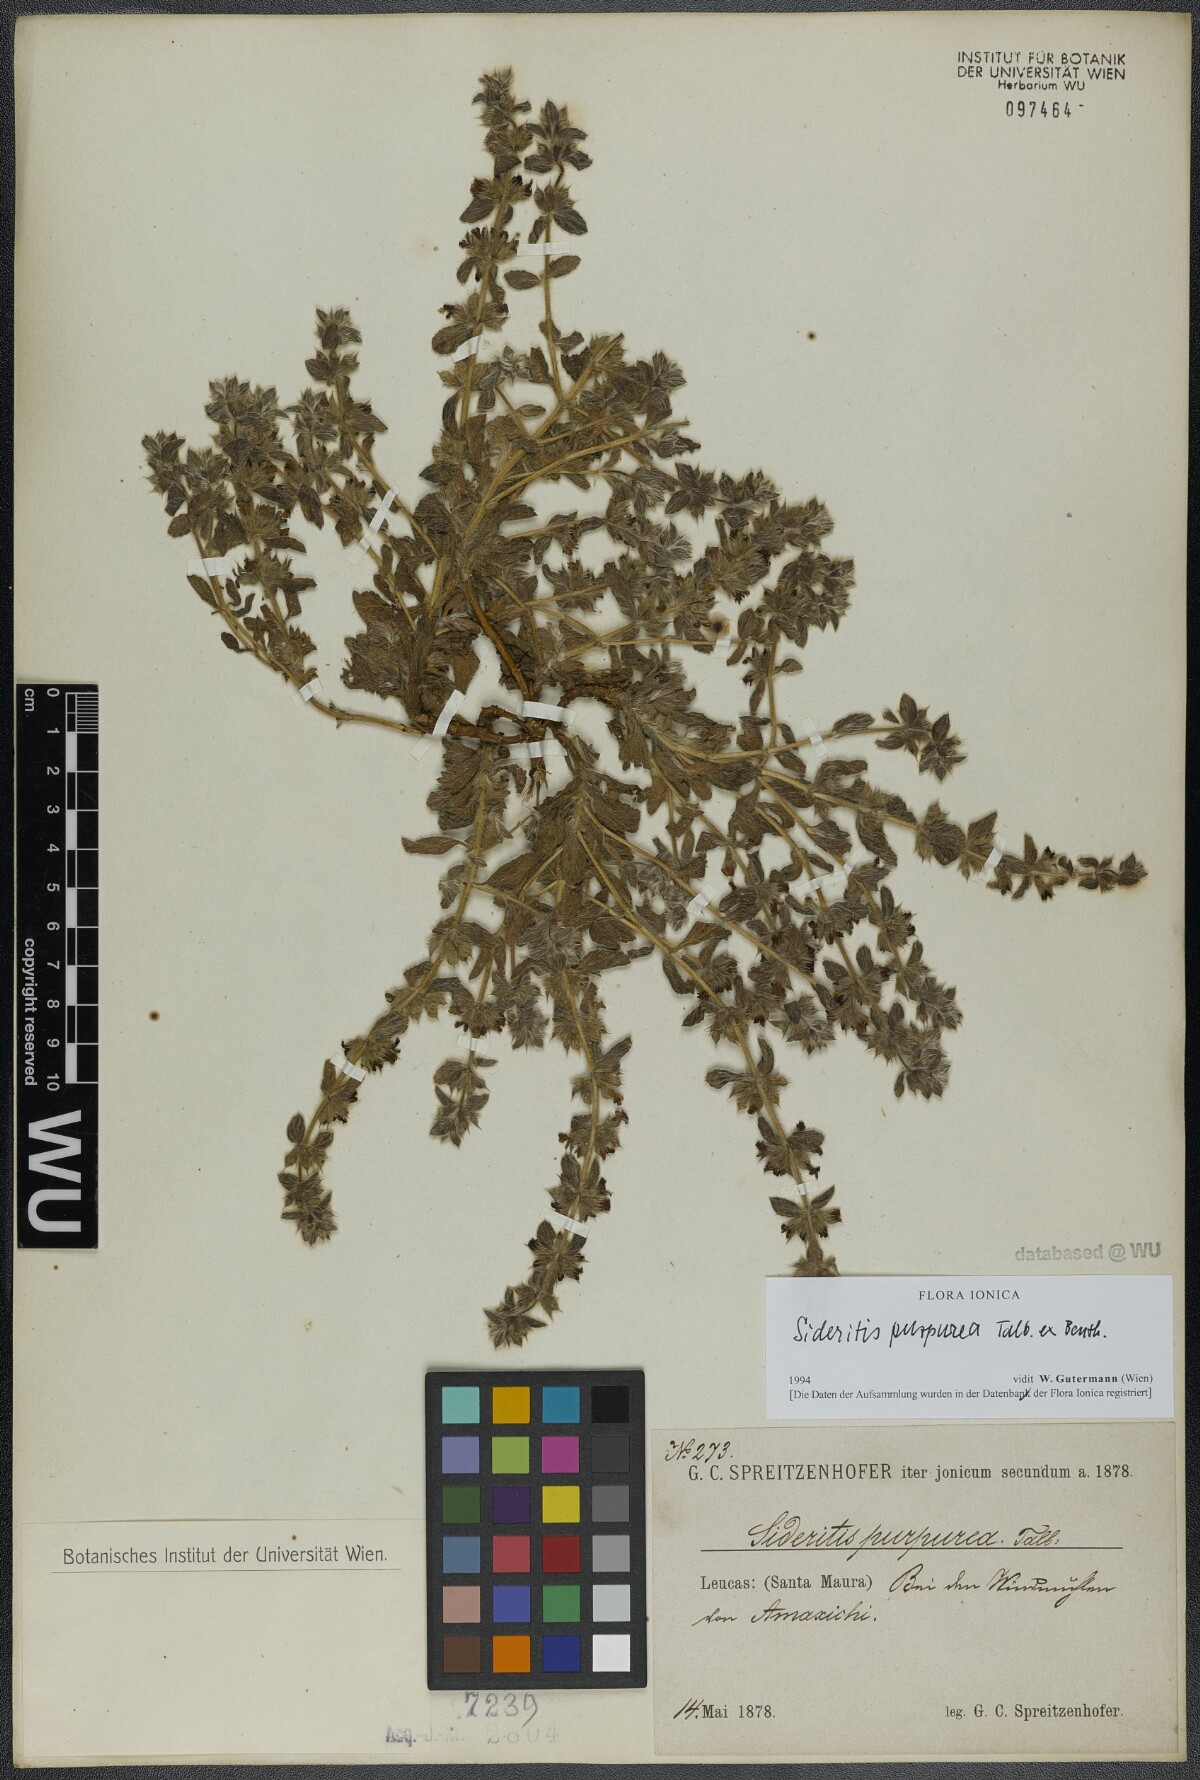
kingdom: Plantae
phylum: Tracheophyta
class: Magnoliopsida
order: Lamiales
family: Lamiaceae
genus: Sideritis
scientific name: Sideritis romana
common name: Simplebeak ironwort
